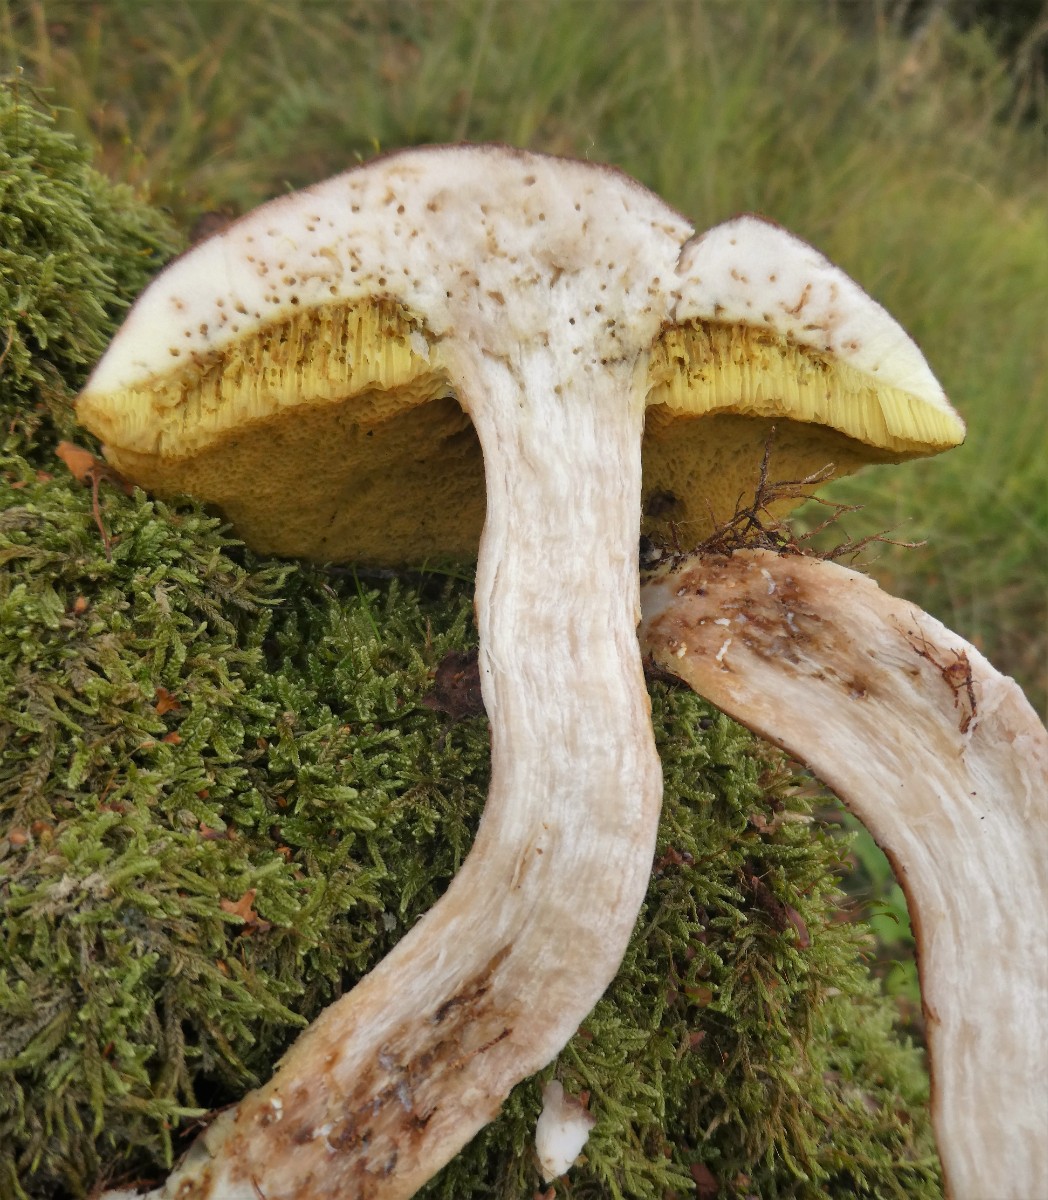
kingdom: Fungi
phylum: Basidiomycota
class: Agaricomycetes
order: Boletales
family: Boletaceae
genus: Xerocomus
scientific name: Xerocomus ferrugineus
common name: vaskeskinds-rørhat
